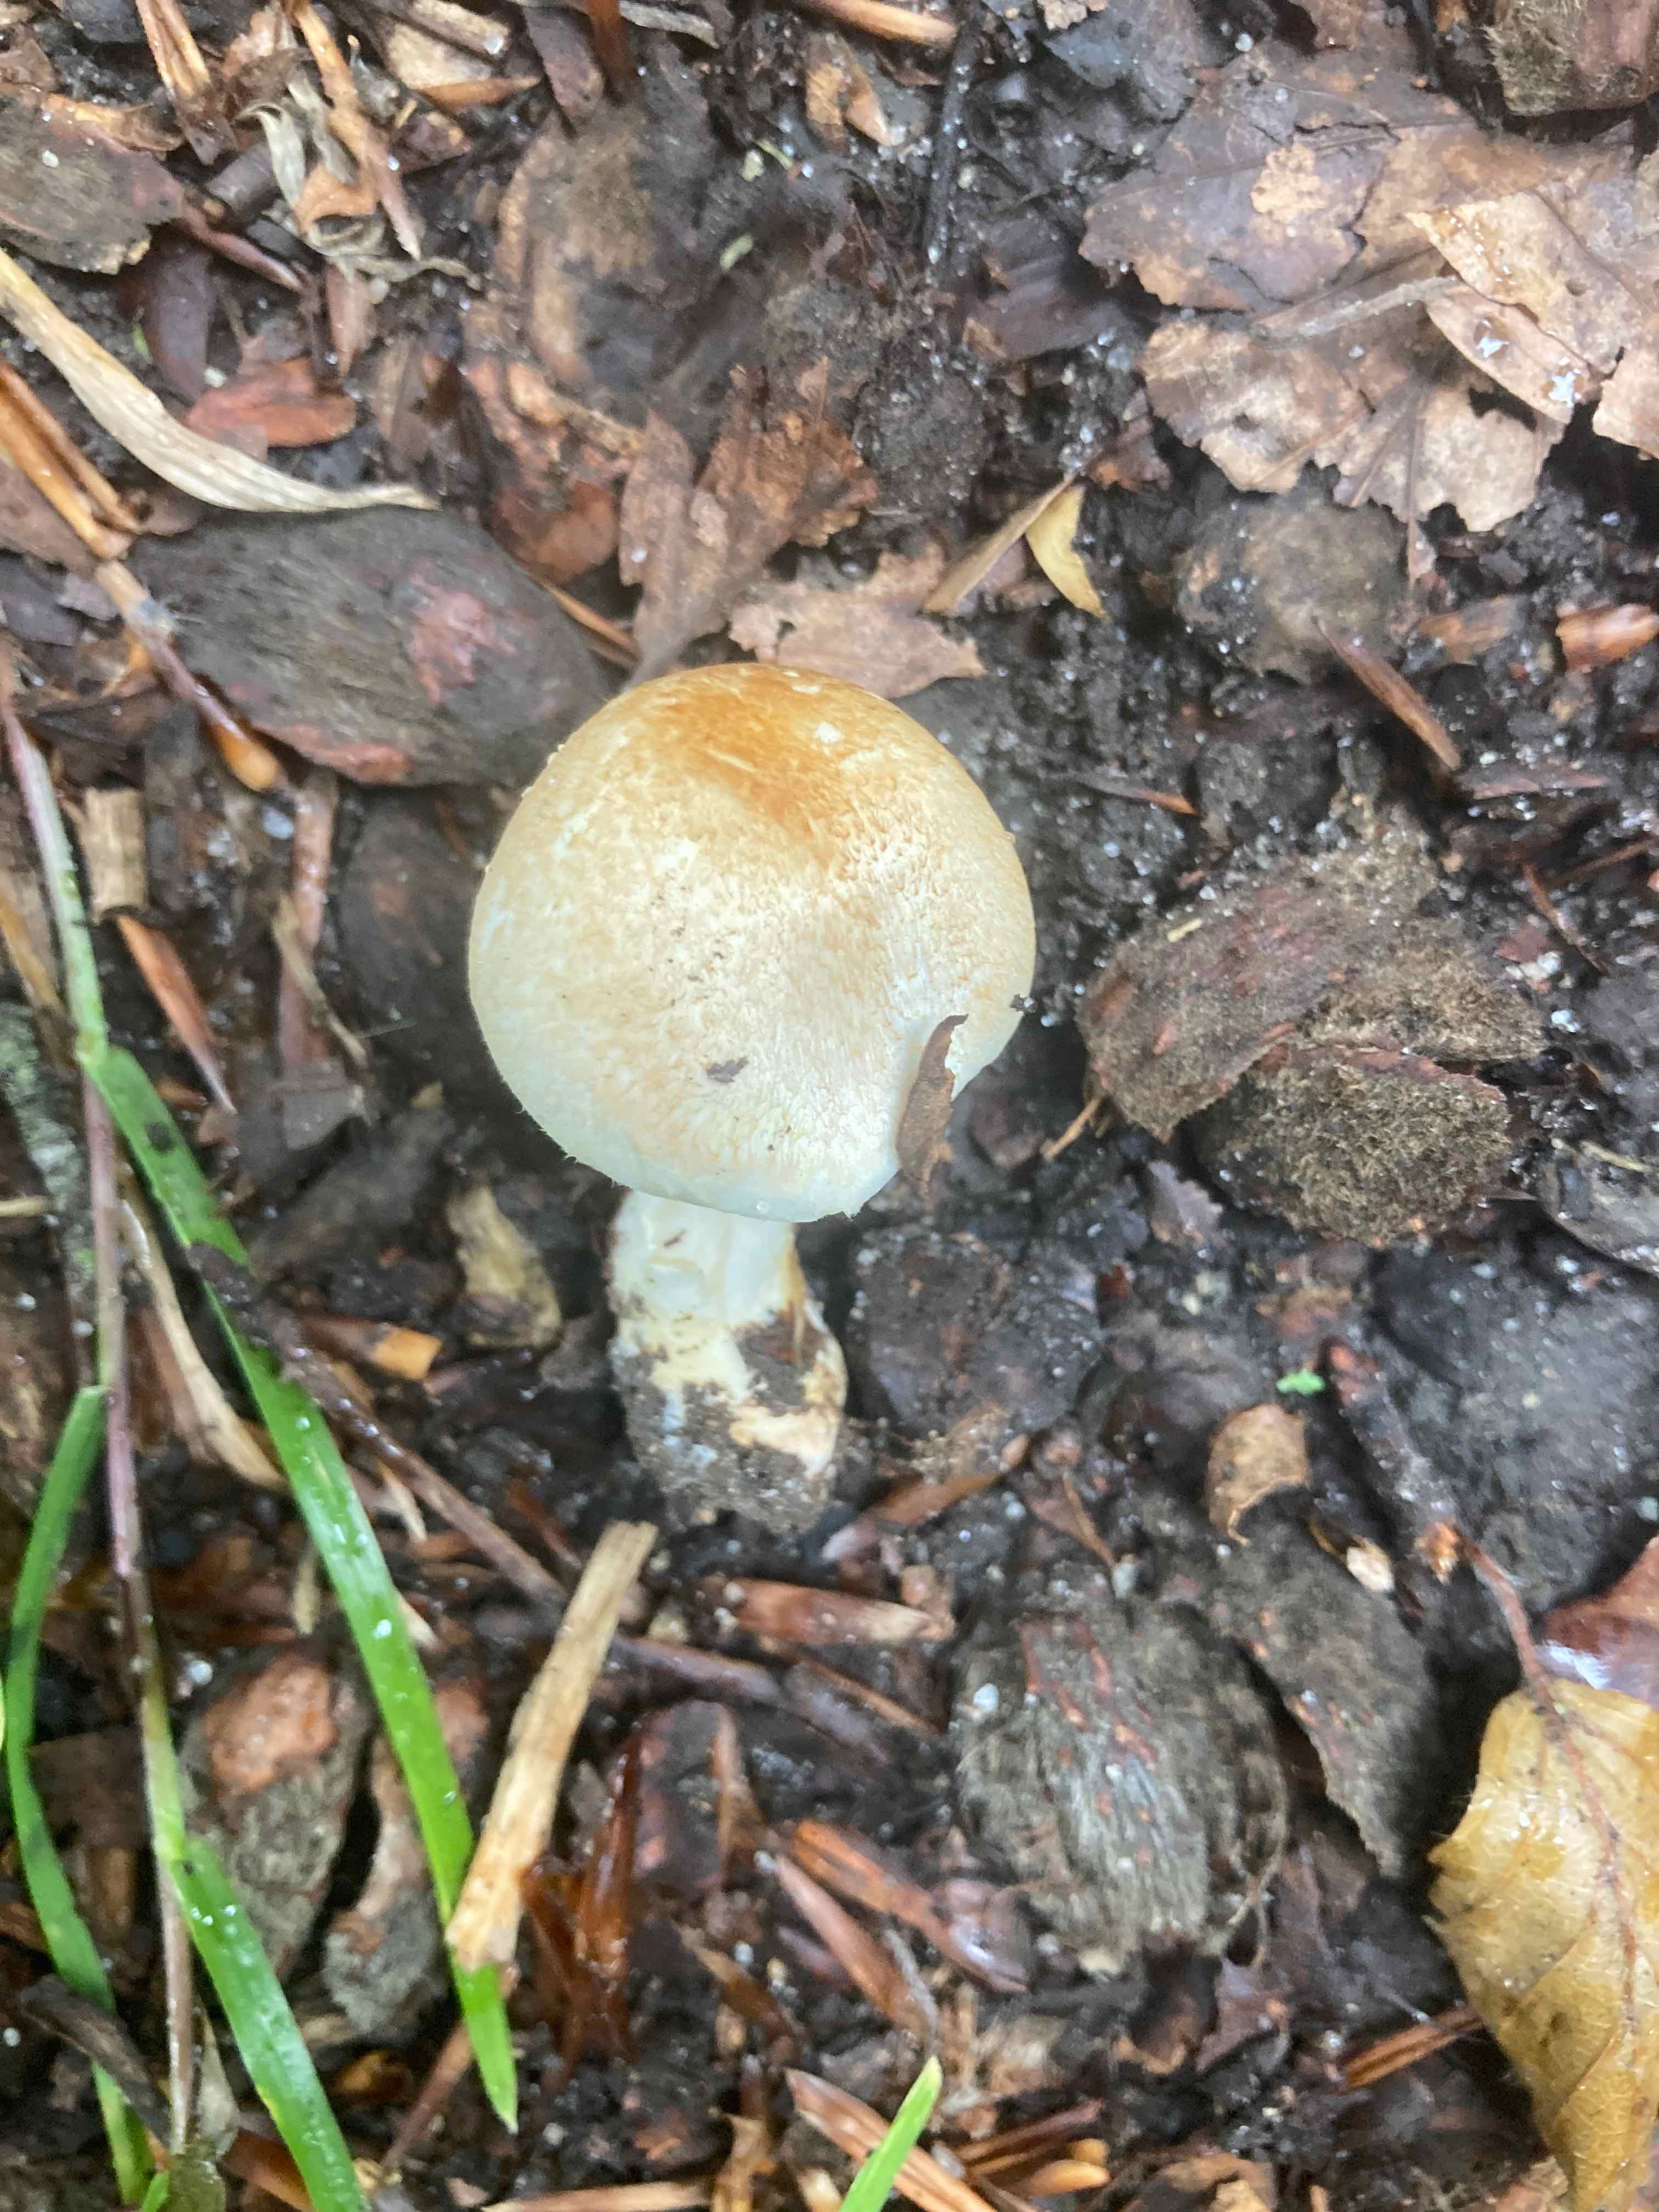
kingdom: Fungi
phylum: Basidiomycota
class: Agaricomycetes
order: Agaricales
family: Agaricaceae
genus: Agaricus
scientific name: Agaricus
